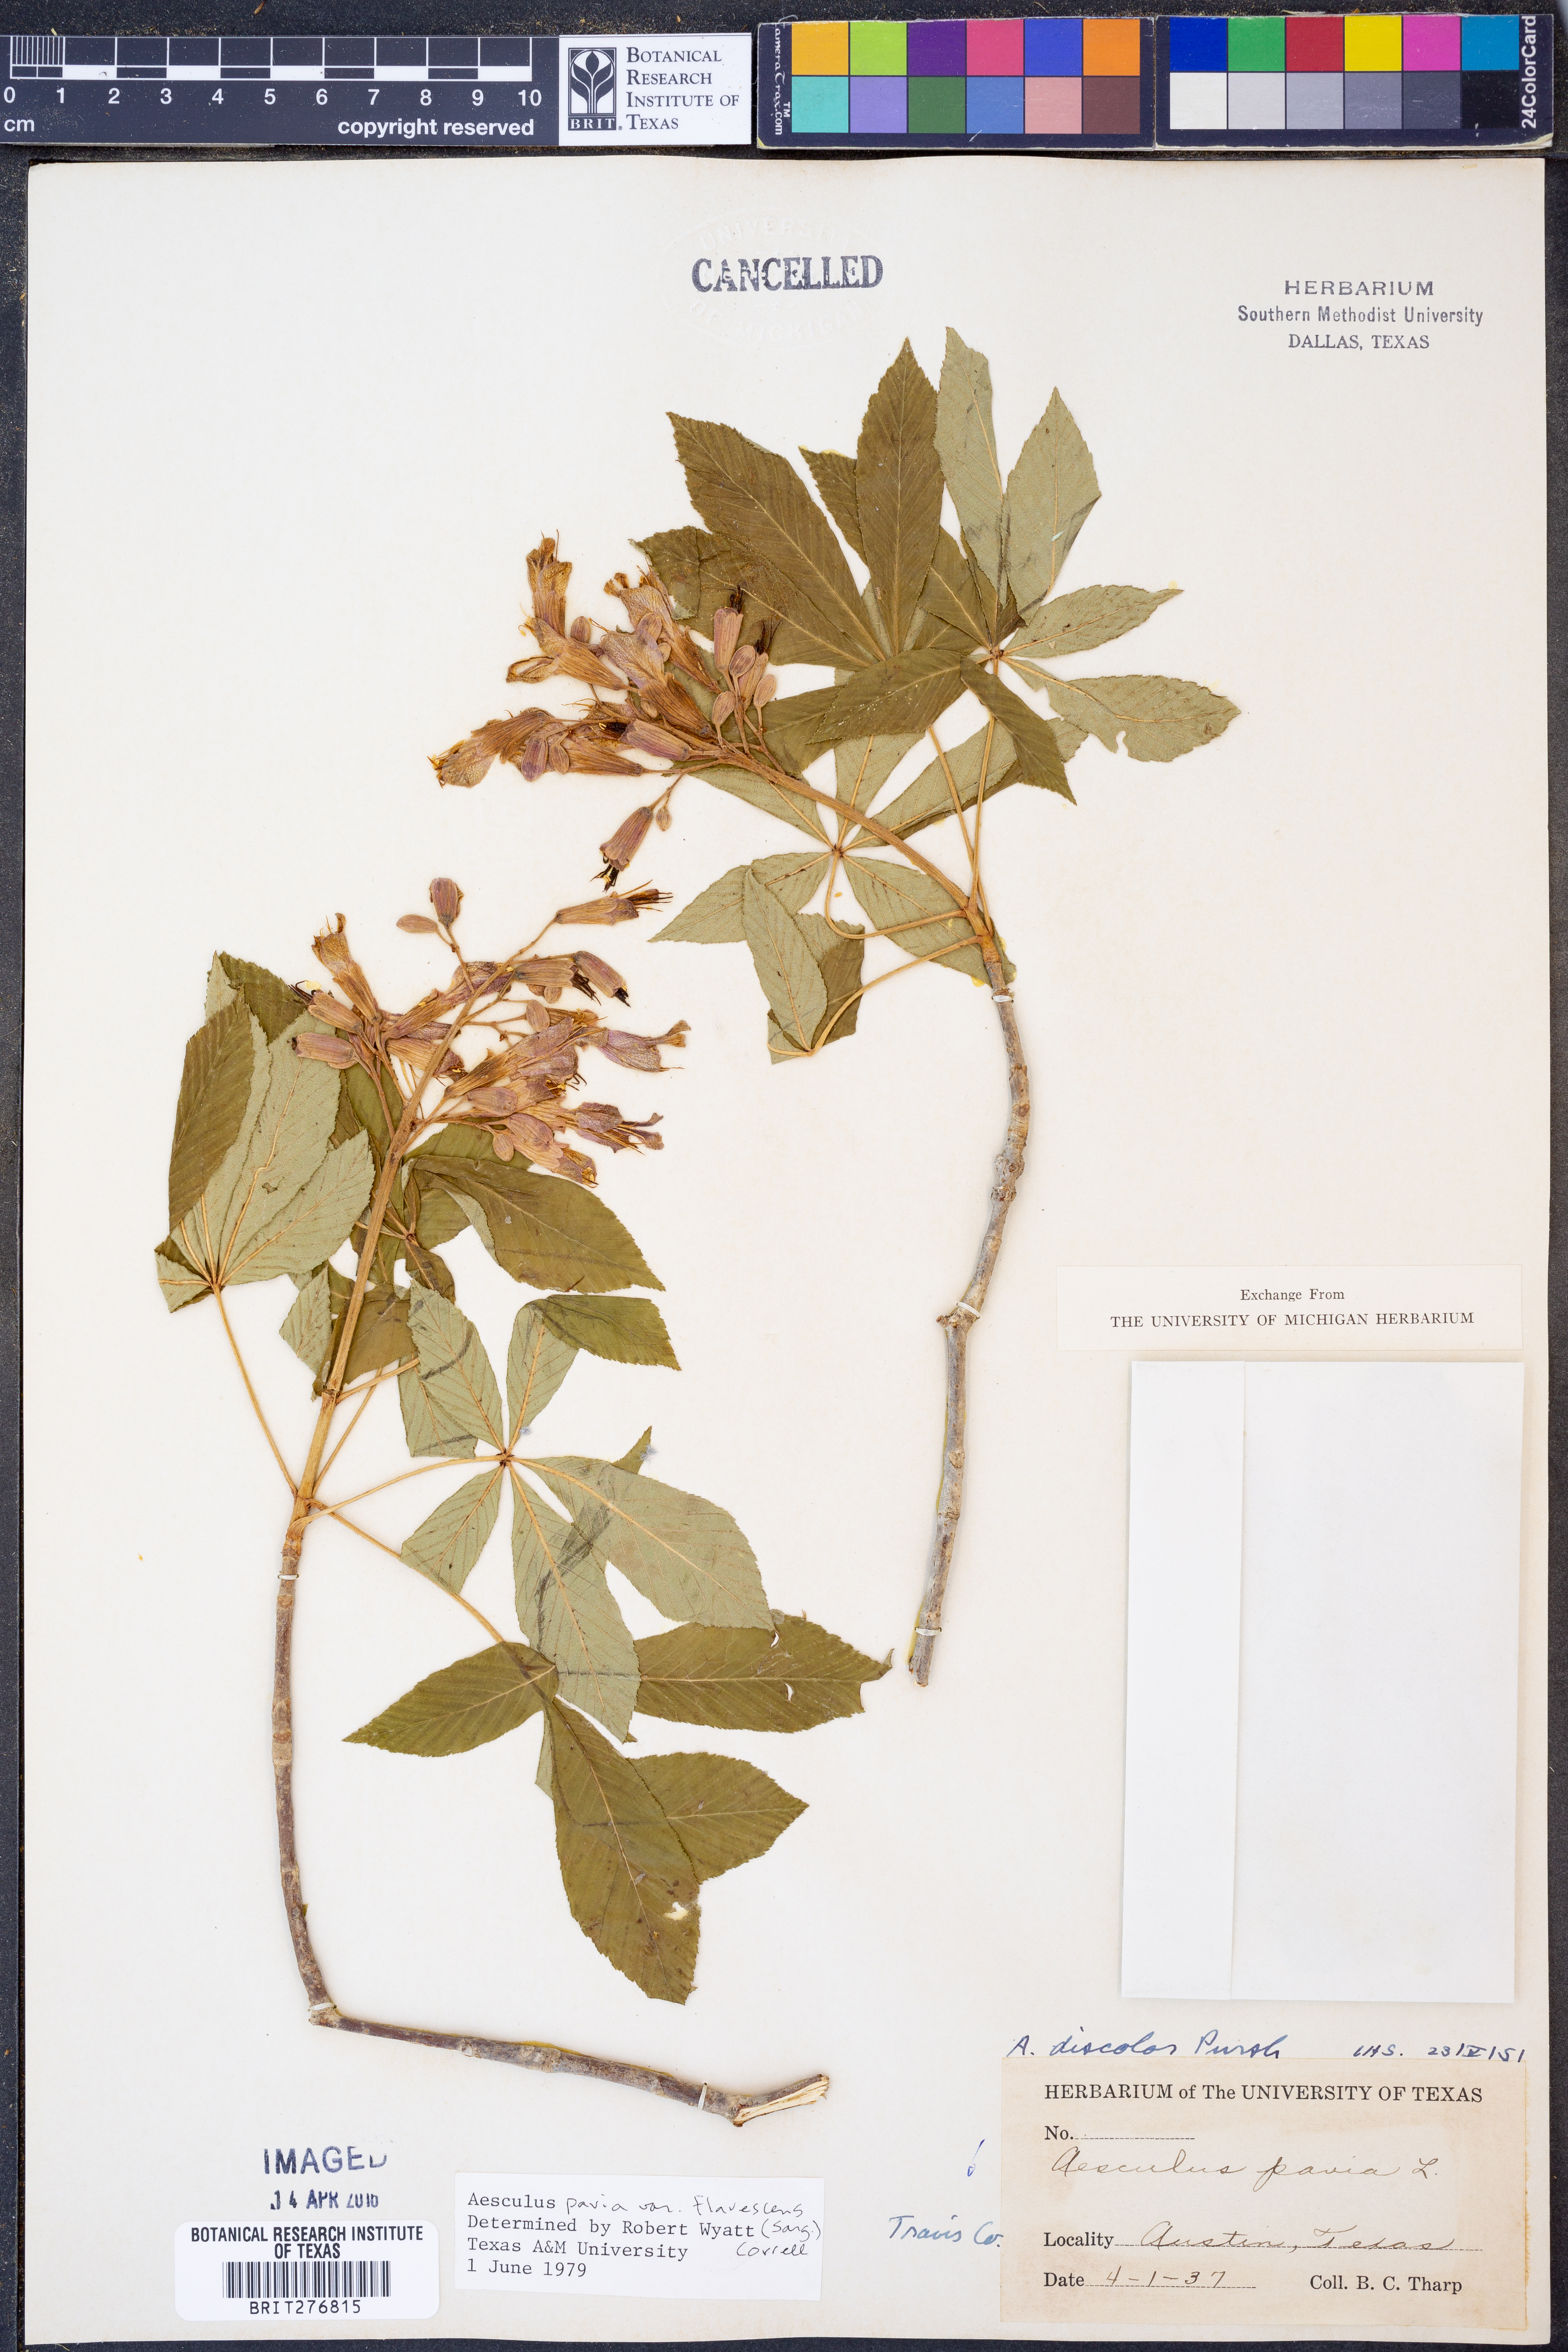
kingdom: Plantae
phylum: Tracheophyta
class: Magnoliopsida
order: Sapindales
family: Sapindaceae
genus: Aesculus
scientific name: Aesculus pavia
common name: Red buckeye
